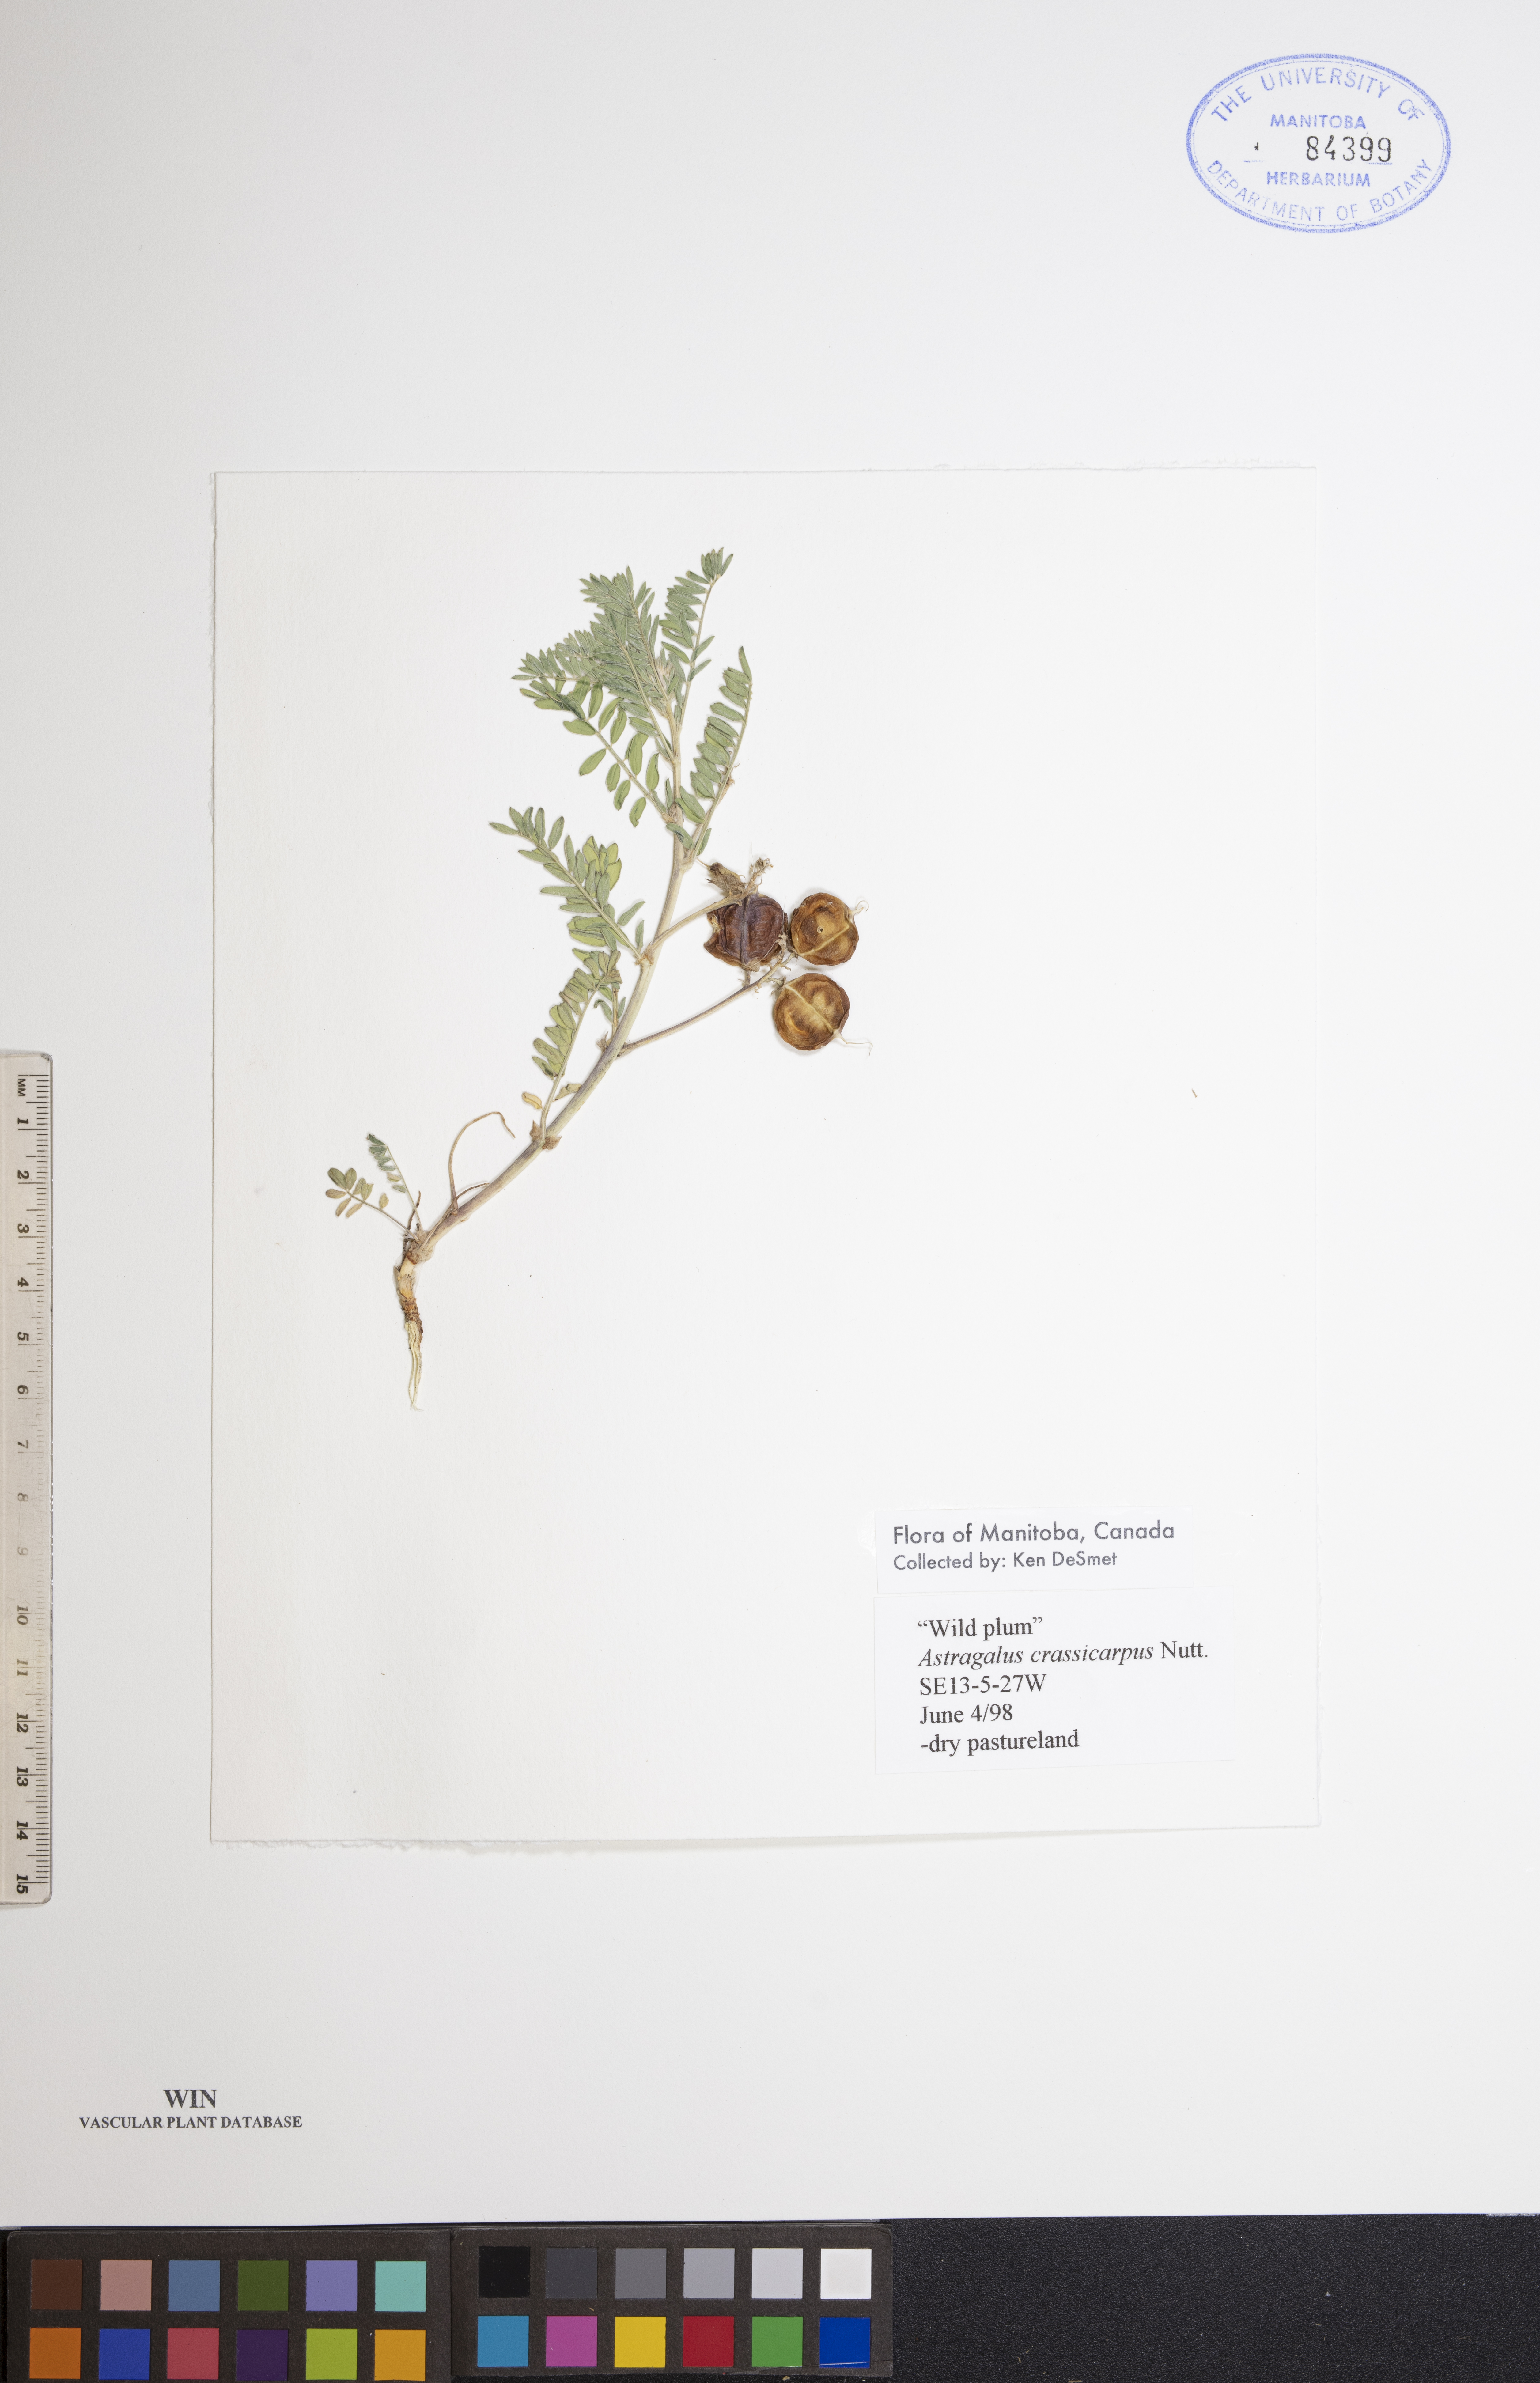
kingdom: Plantae
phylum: Tracheophyta
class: Magnoliopsida
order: Fabales
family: Fabaceae
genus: Astragalus
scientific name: Astragalus crassicarpus
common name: Ground-plum milk-vetch
